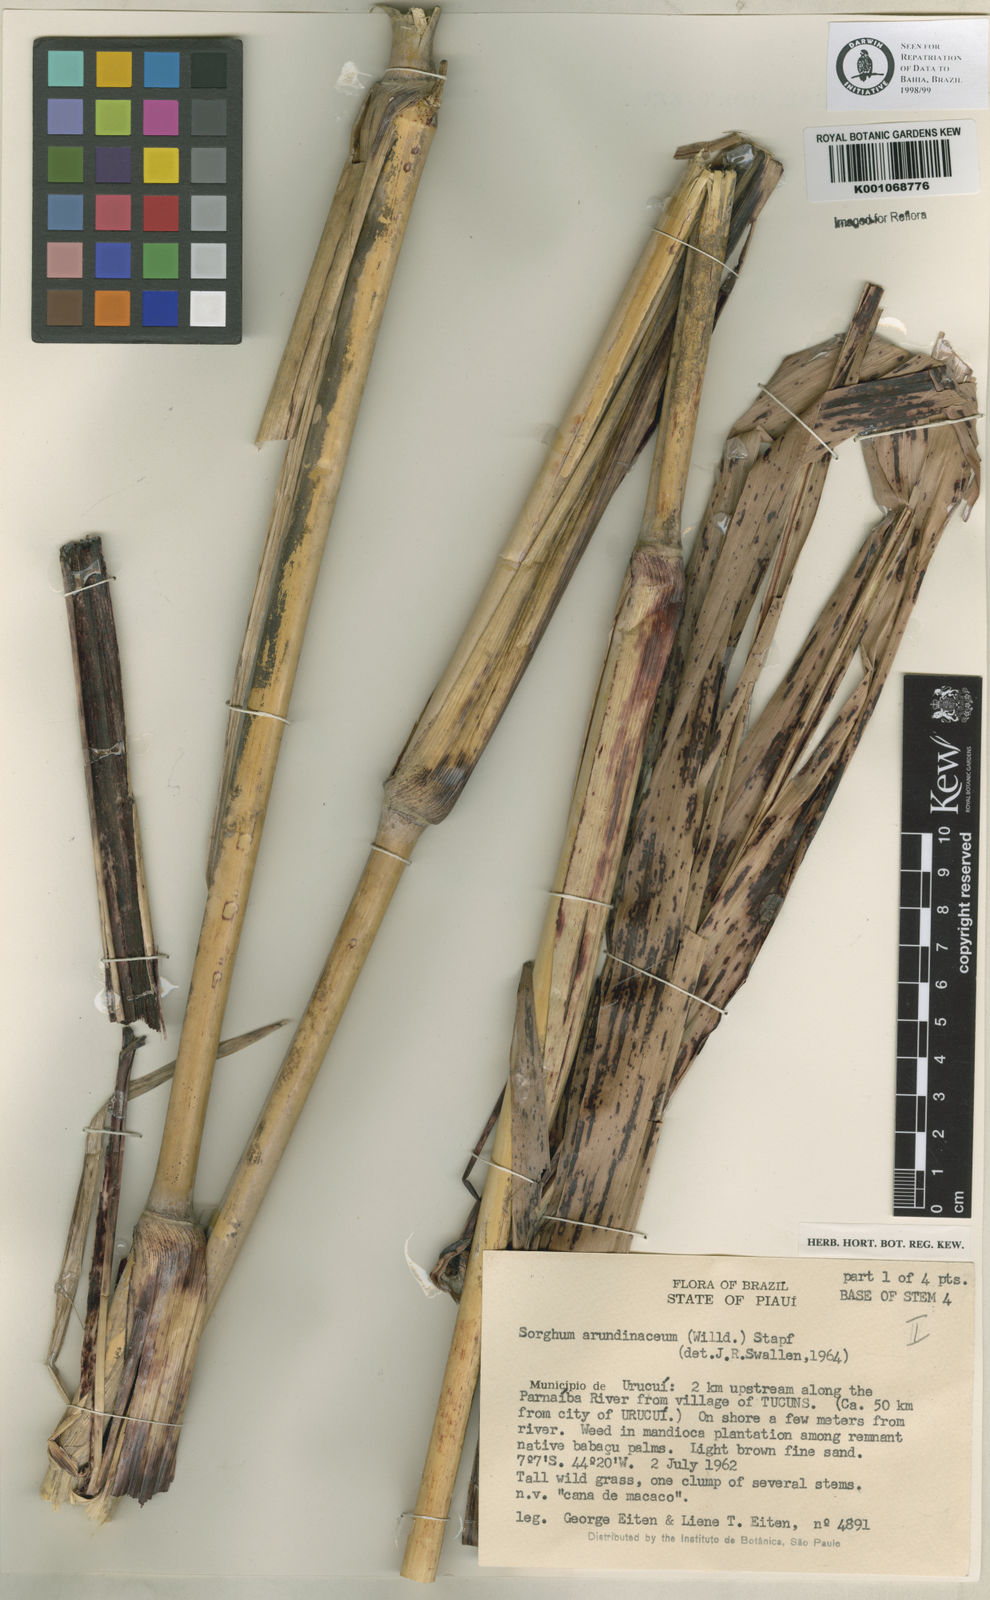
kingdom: Plantae
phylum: Tracheophyta
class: Liliopsida
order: Poales
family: Poaceae
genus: Sorghum
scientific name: Sorghum arundinaceum
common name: Sorghum
